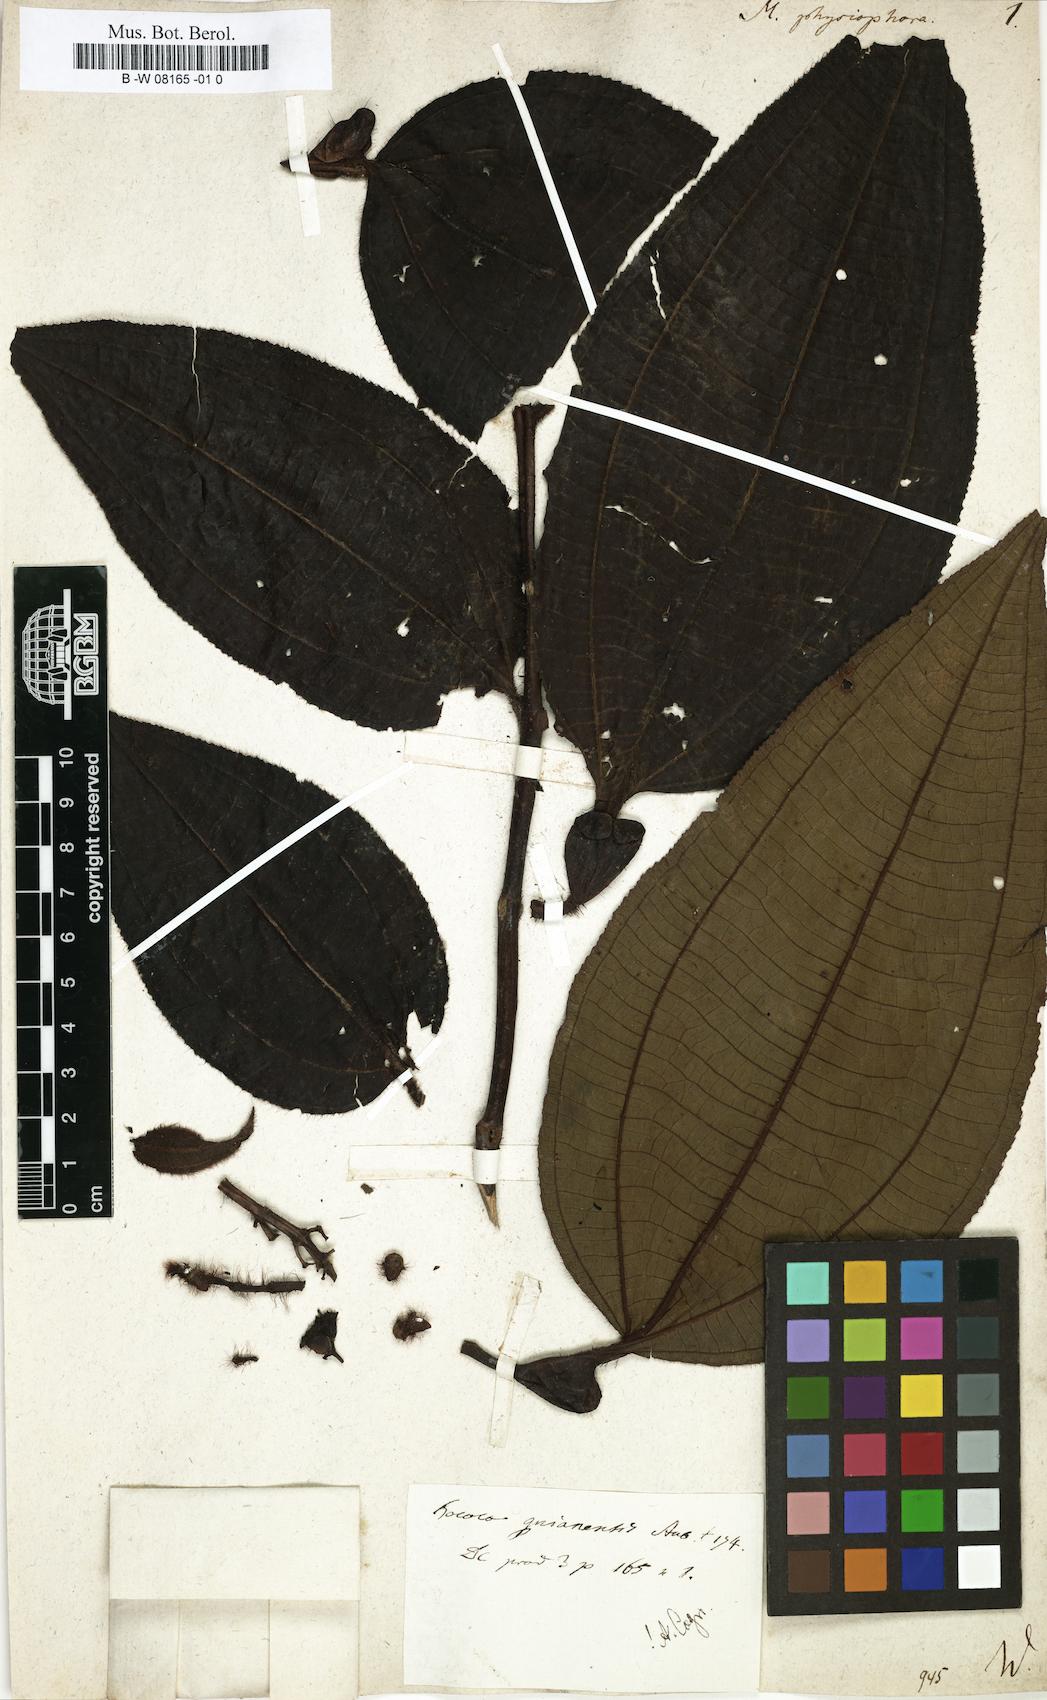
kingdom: Plantae
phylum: Tracheophyta
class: Magnoliopsida
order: Myrtales
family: Melastomataceae
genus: Miconia
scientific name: Miconia tococa
